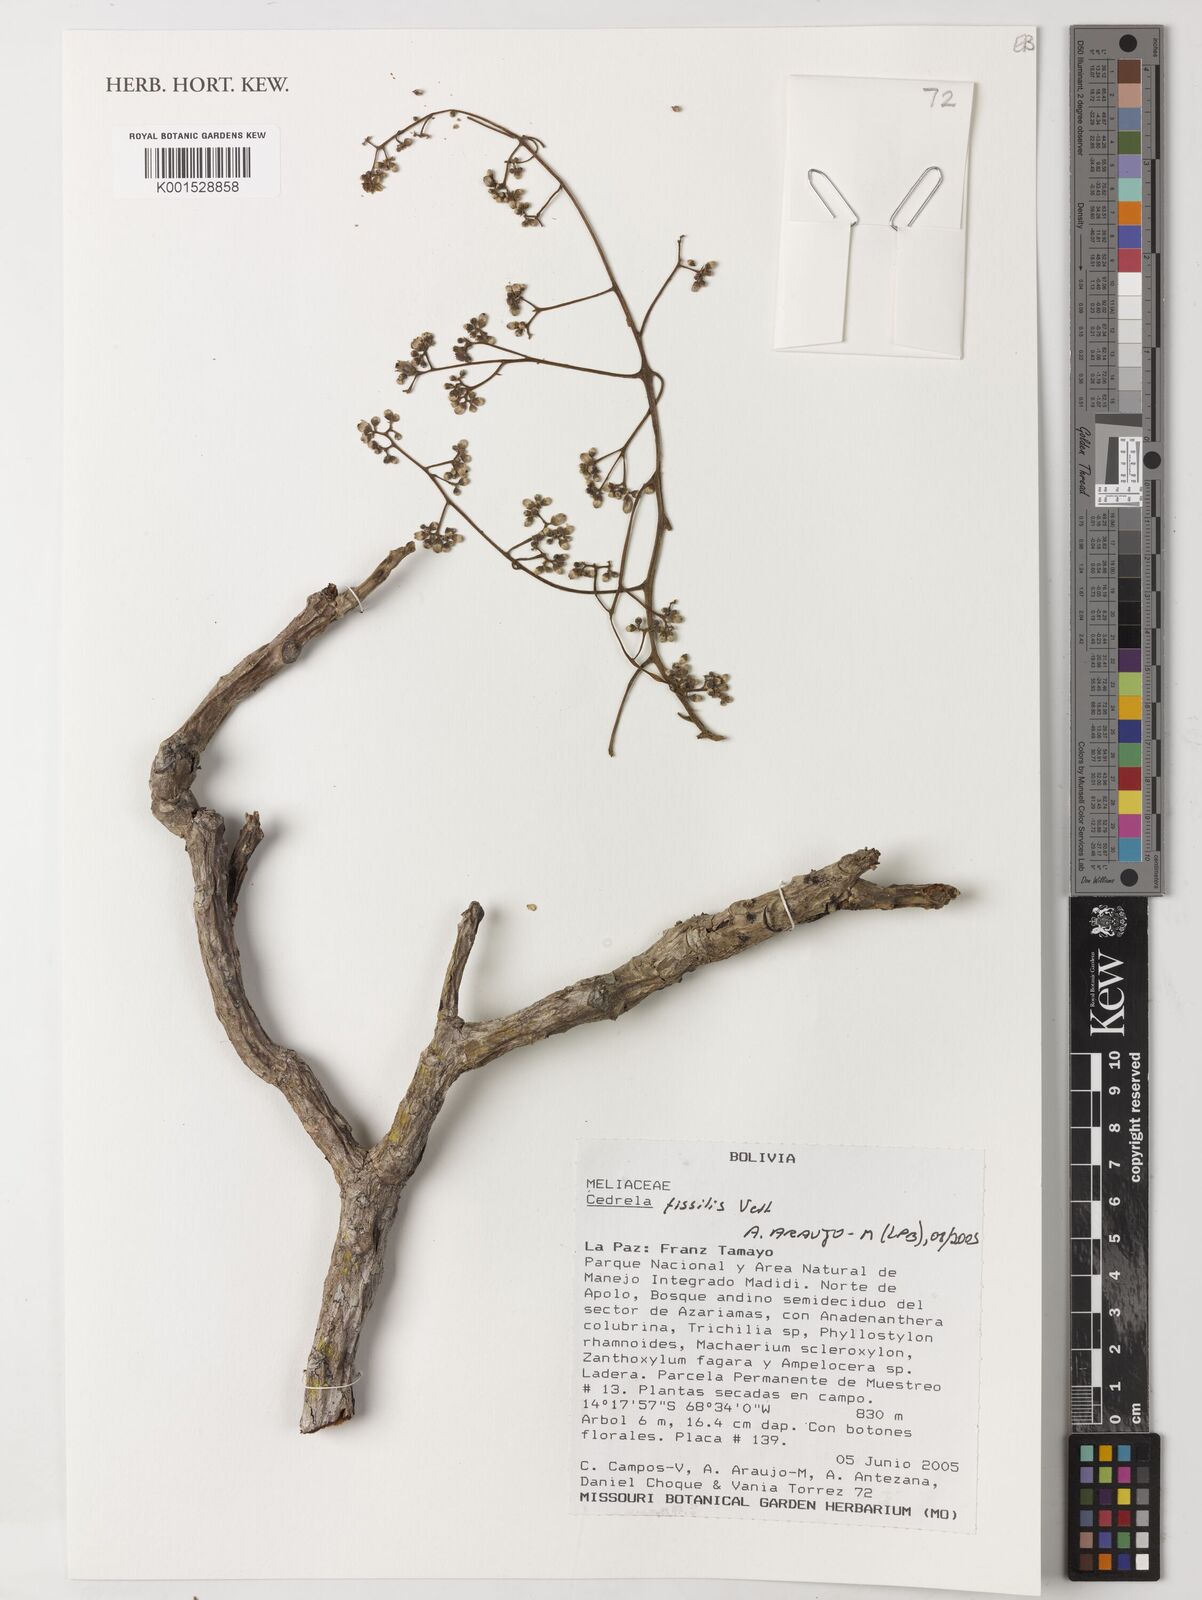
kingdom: Plantae
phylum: Tracheophyta
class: Magnoliopsida
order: Sapindales
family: Meliaceae
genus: Cedrela
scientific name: Cedrela fissilis
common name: Argentine cedar
